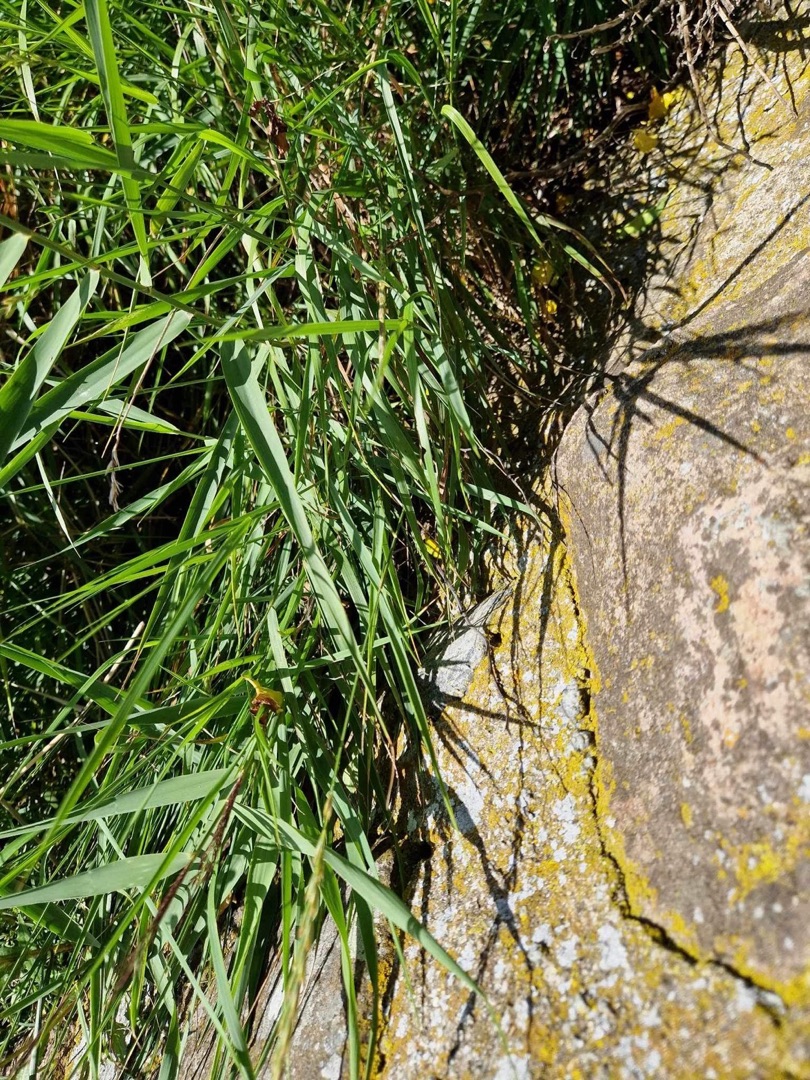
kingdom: Animalia
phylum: Chordata
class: Squamata
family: Lacertidae
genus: Lacerta
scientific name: Lacerta agilis
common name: Markfirben
